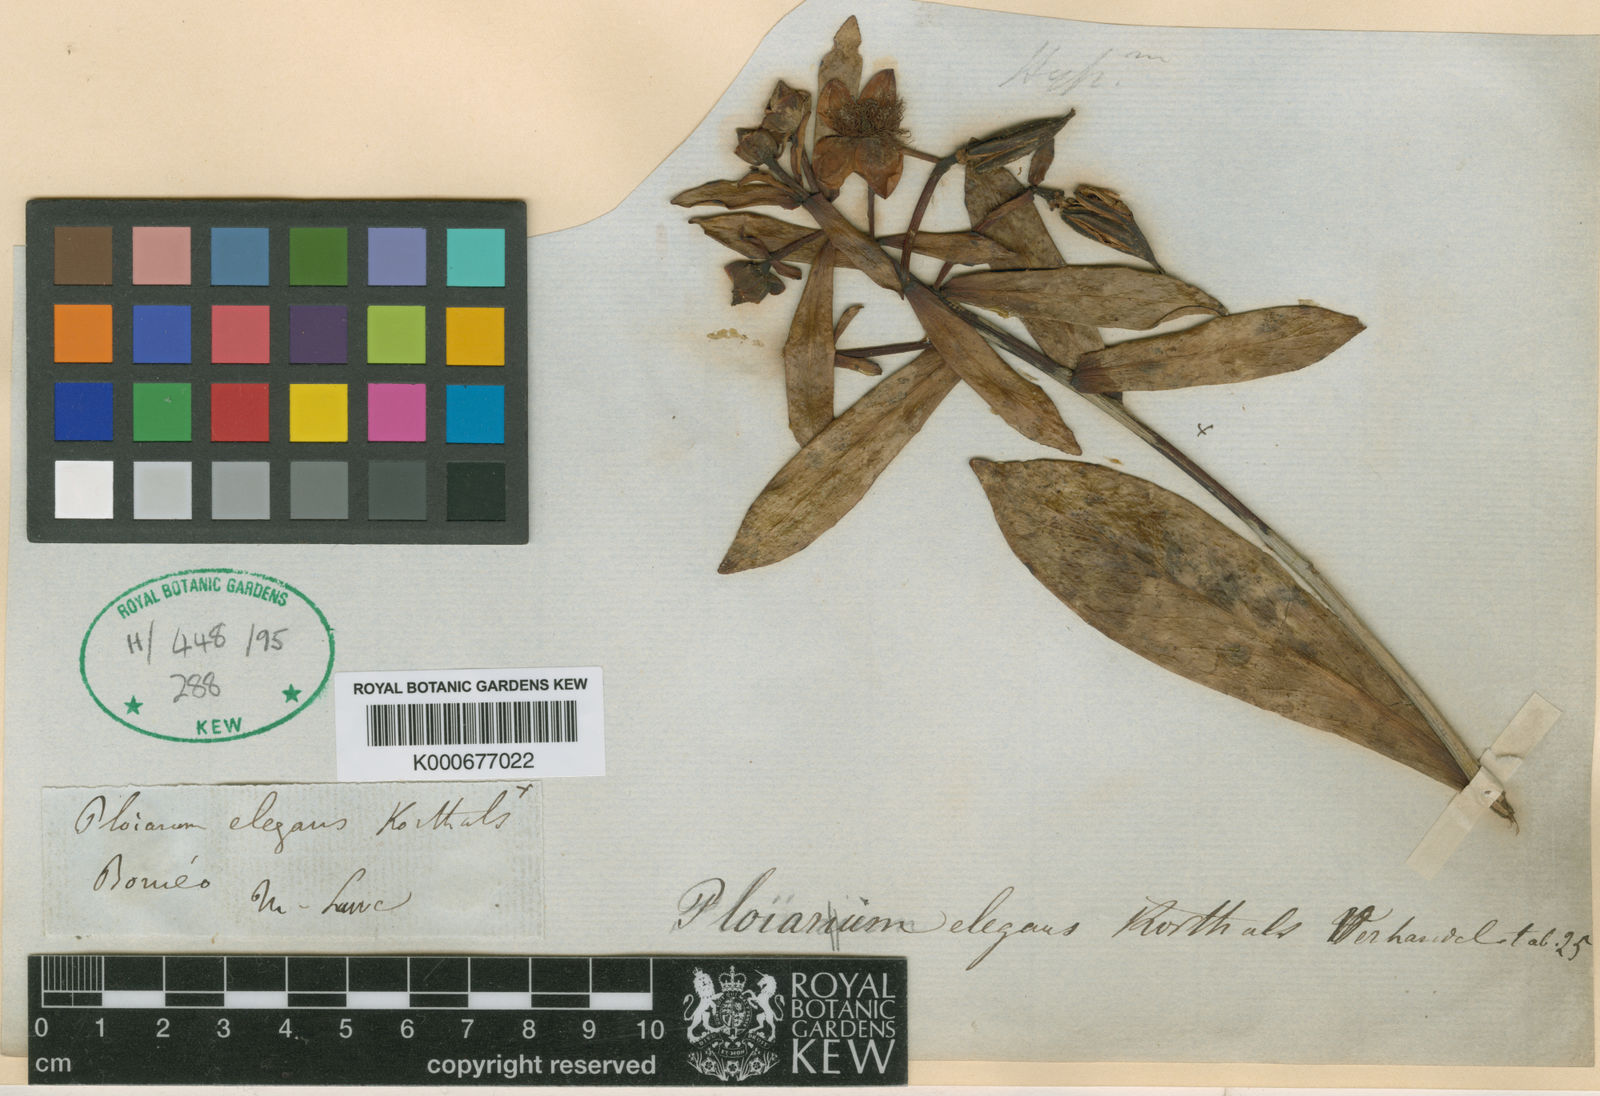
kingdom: Plantae
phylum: Tracheophyta
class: Magnoliopsida
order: Malpighiales
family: Bonnetiaceae
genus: Ploiarium
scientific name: Ploiarium alternifolium
